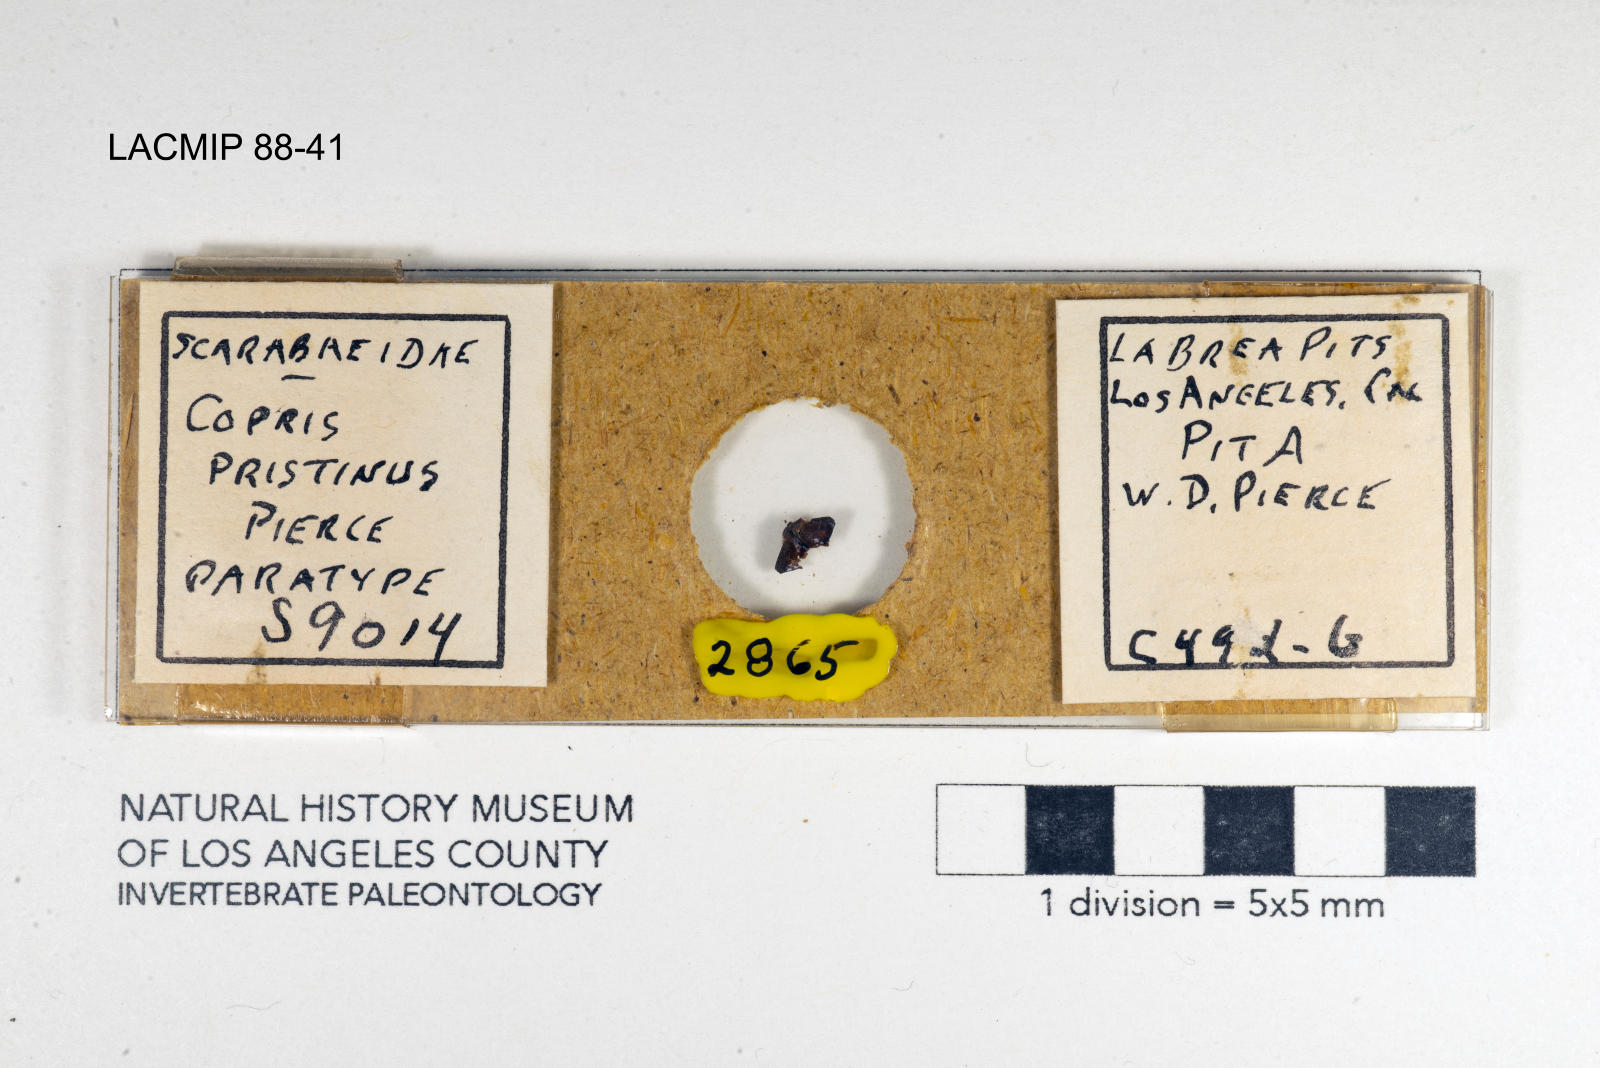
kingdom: Animalia
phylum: Arthropoda
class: Insecta
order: Coleoptera
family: Scarabaeidae
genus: Copris
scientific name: Copris pristinus
